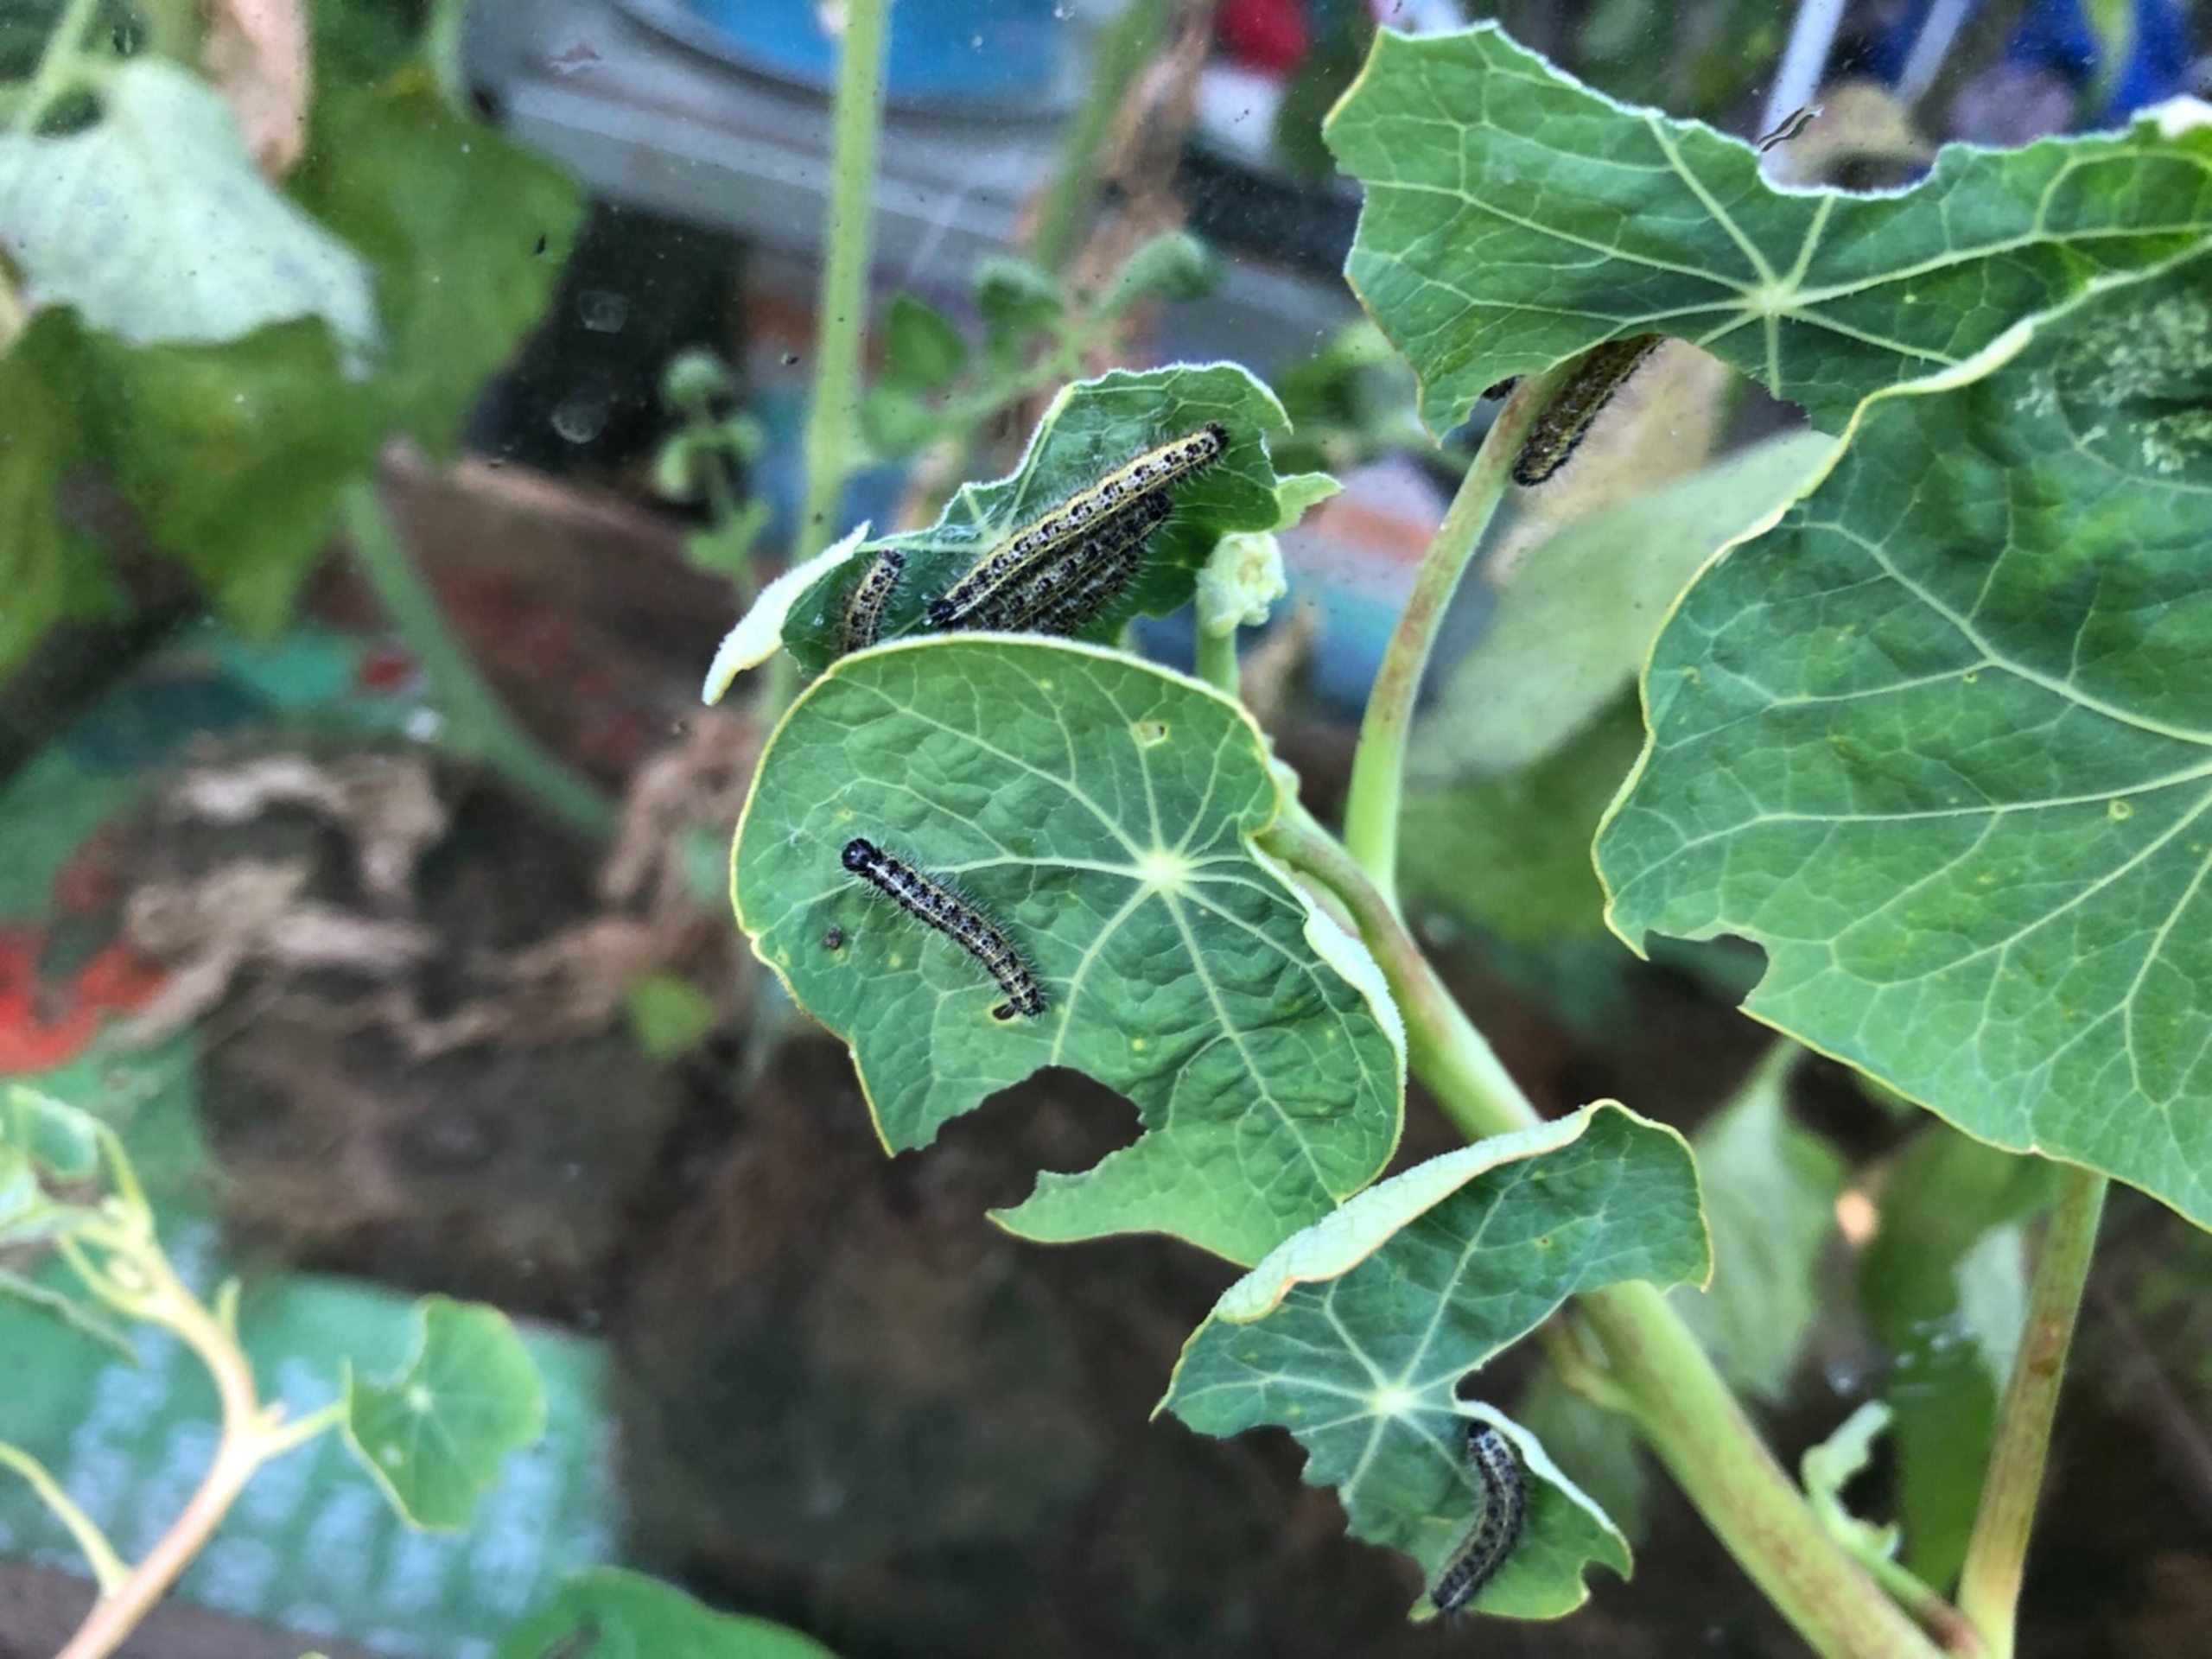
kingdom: Animalia
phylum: Arthropoda
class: Insecta
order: Lepidoptera
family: Pieridae
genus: Pieris
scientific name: Pieris brassicae
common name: Stor kålsommerfugl
